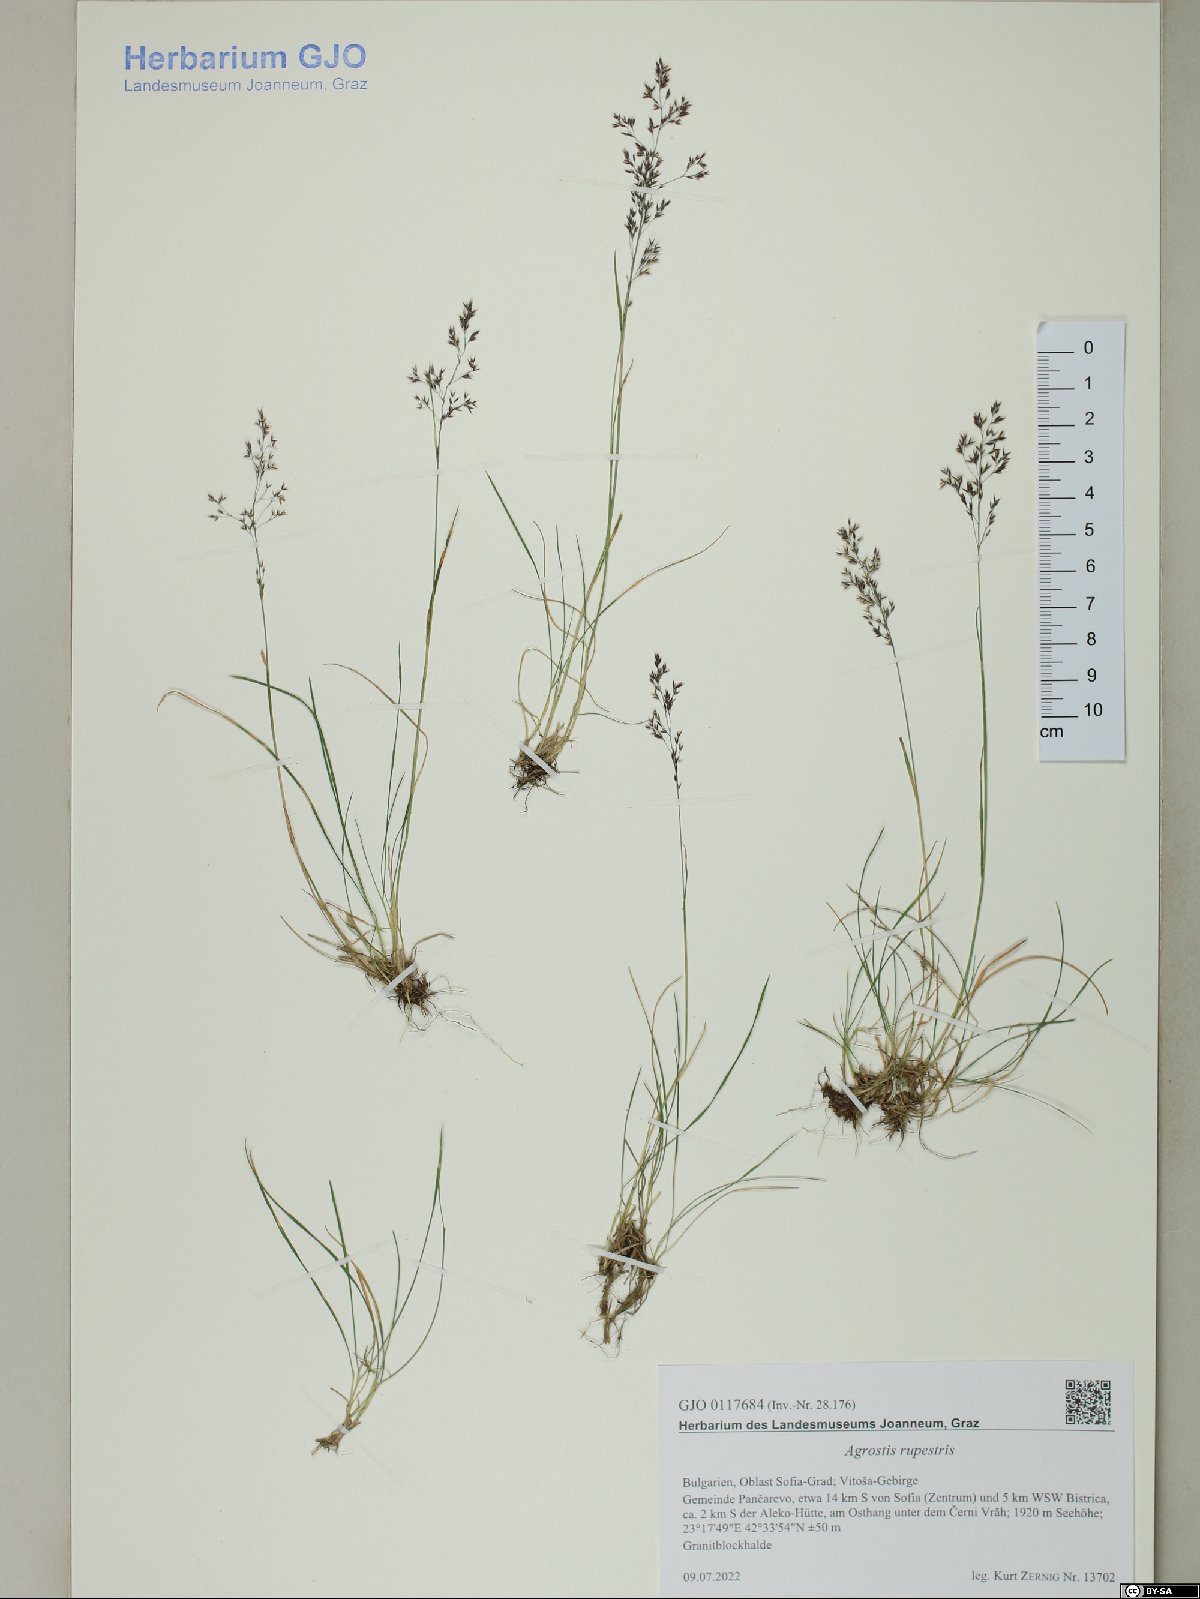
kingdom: Plantae
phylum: Tracheophyta
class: Liliopsida
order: Poales
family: Poaceae
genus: Agrostis
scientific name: Agrostis rupestris
